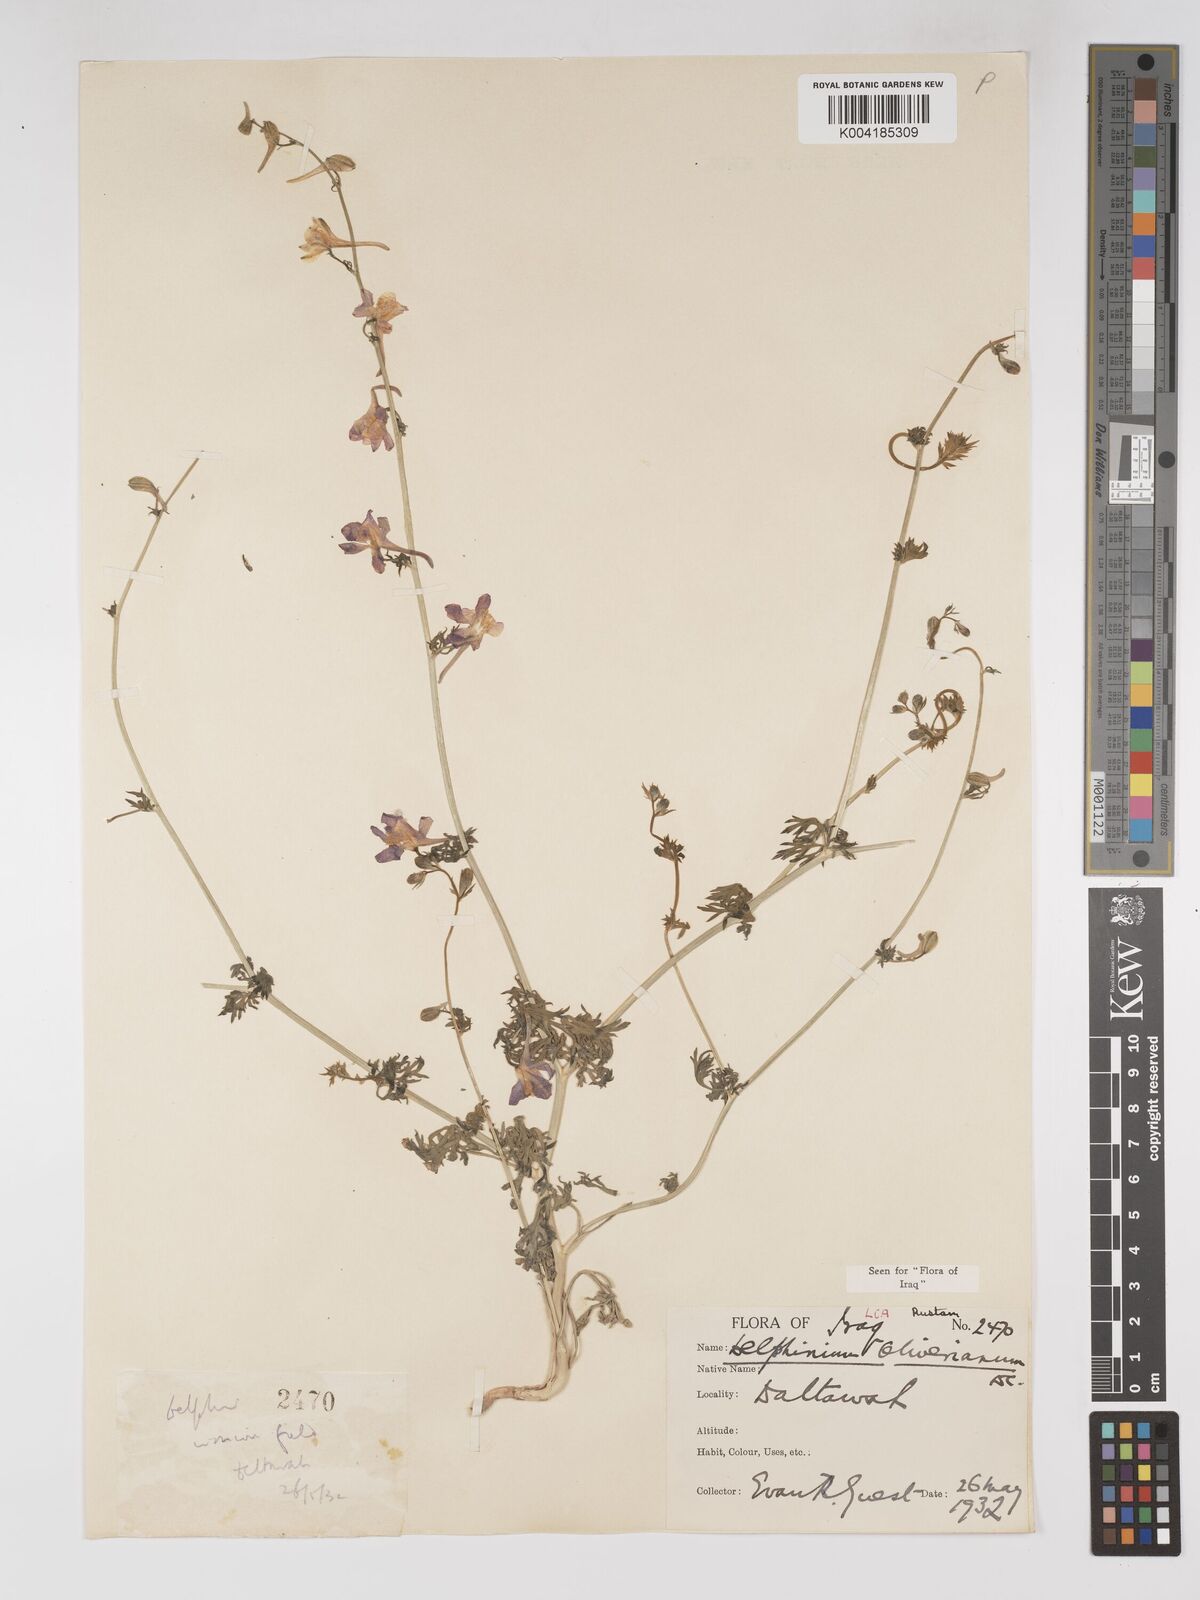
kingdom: Plantae
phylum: Tracheophyta
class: Magnoliopsida
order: Ranunculales
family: Ranunculaceae
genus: Delphinium
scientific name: Delphinium oliverianum
